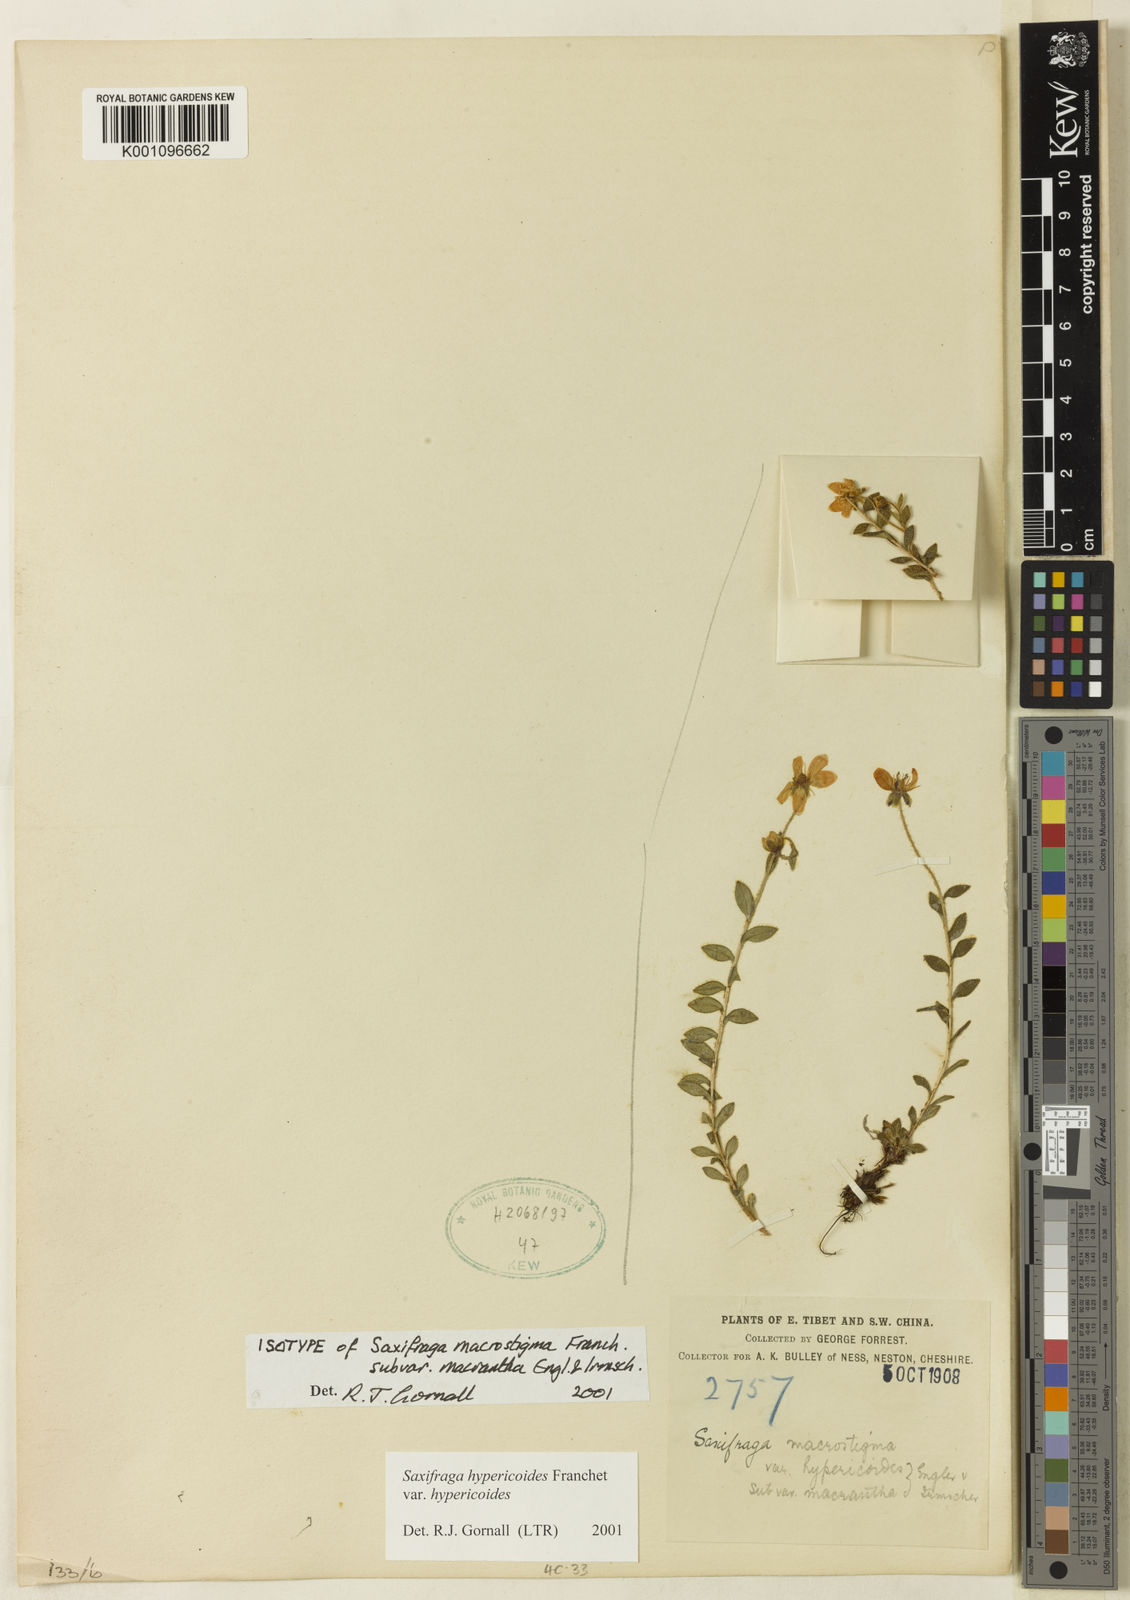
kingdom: Plantae
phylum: Tracheophyta
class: Magnoliopsida
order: Saxifragales
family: Saxifragaceae
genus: Saxifraga
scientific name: Saxifraga aristulata
